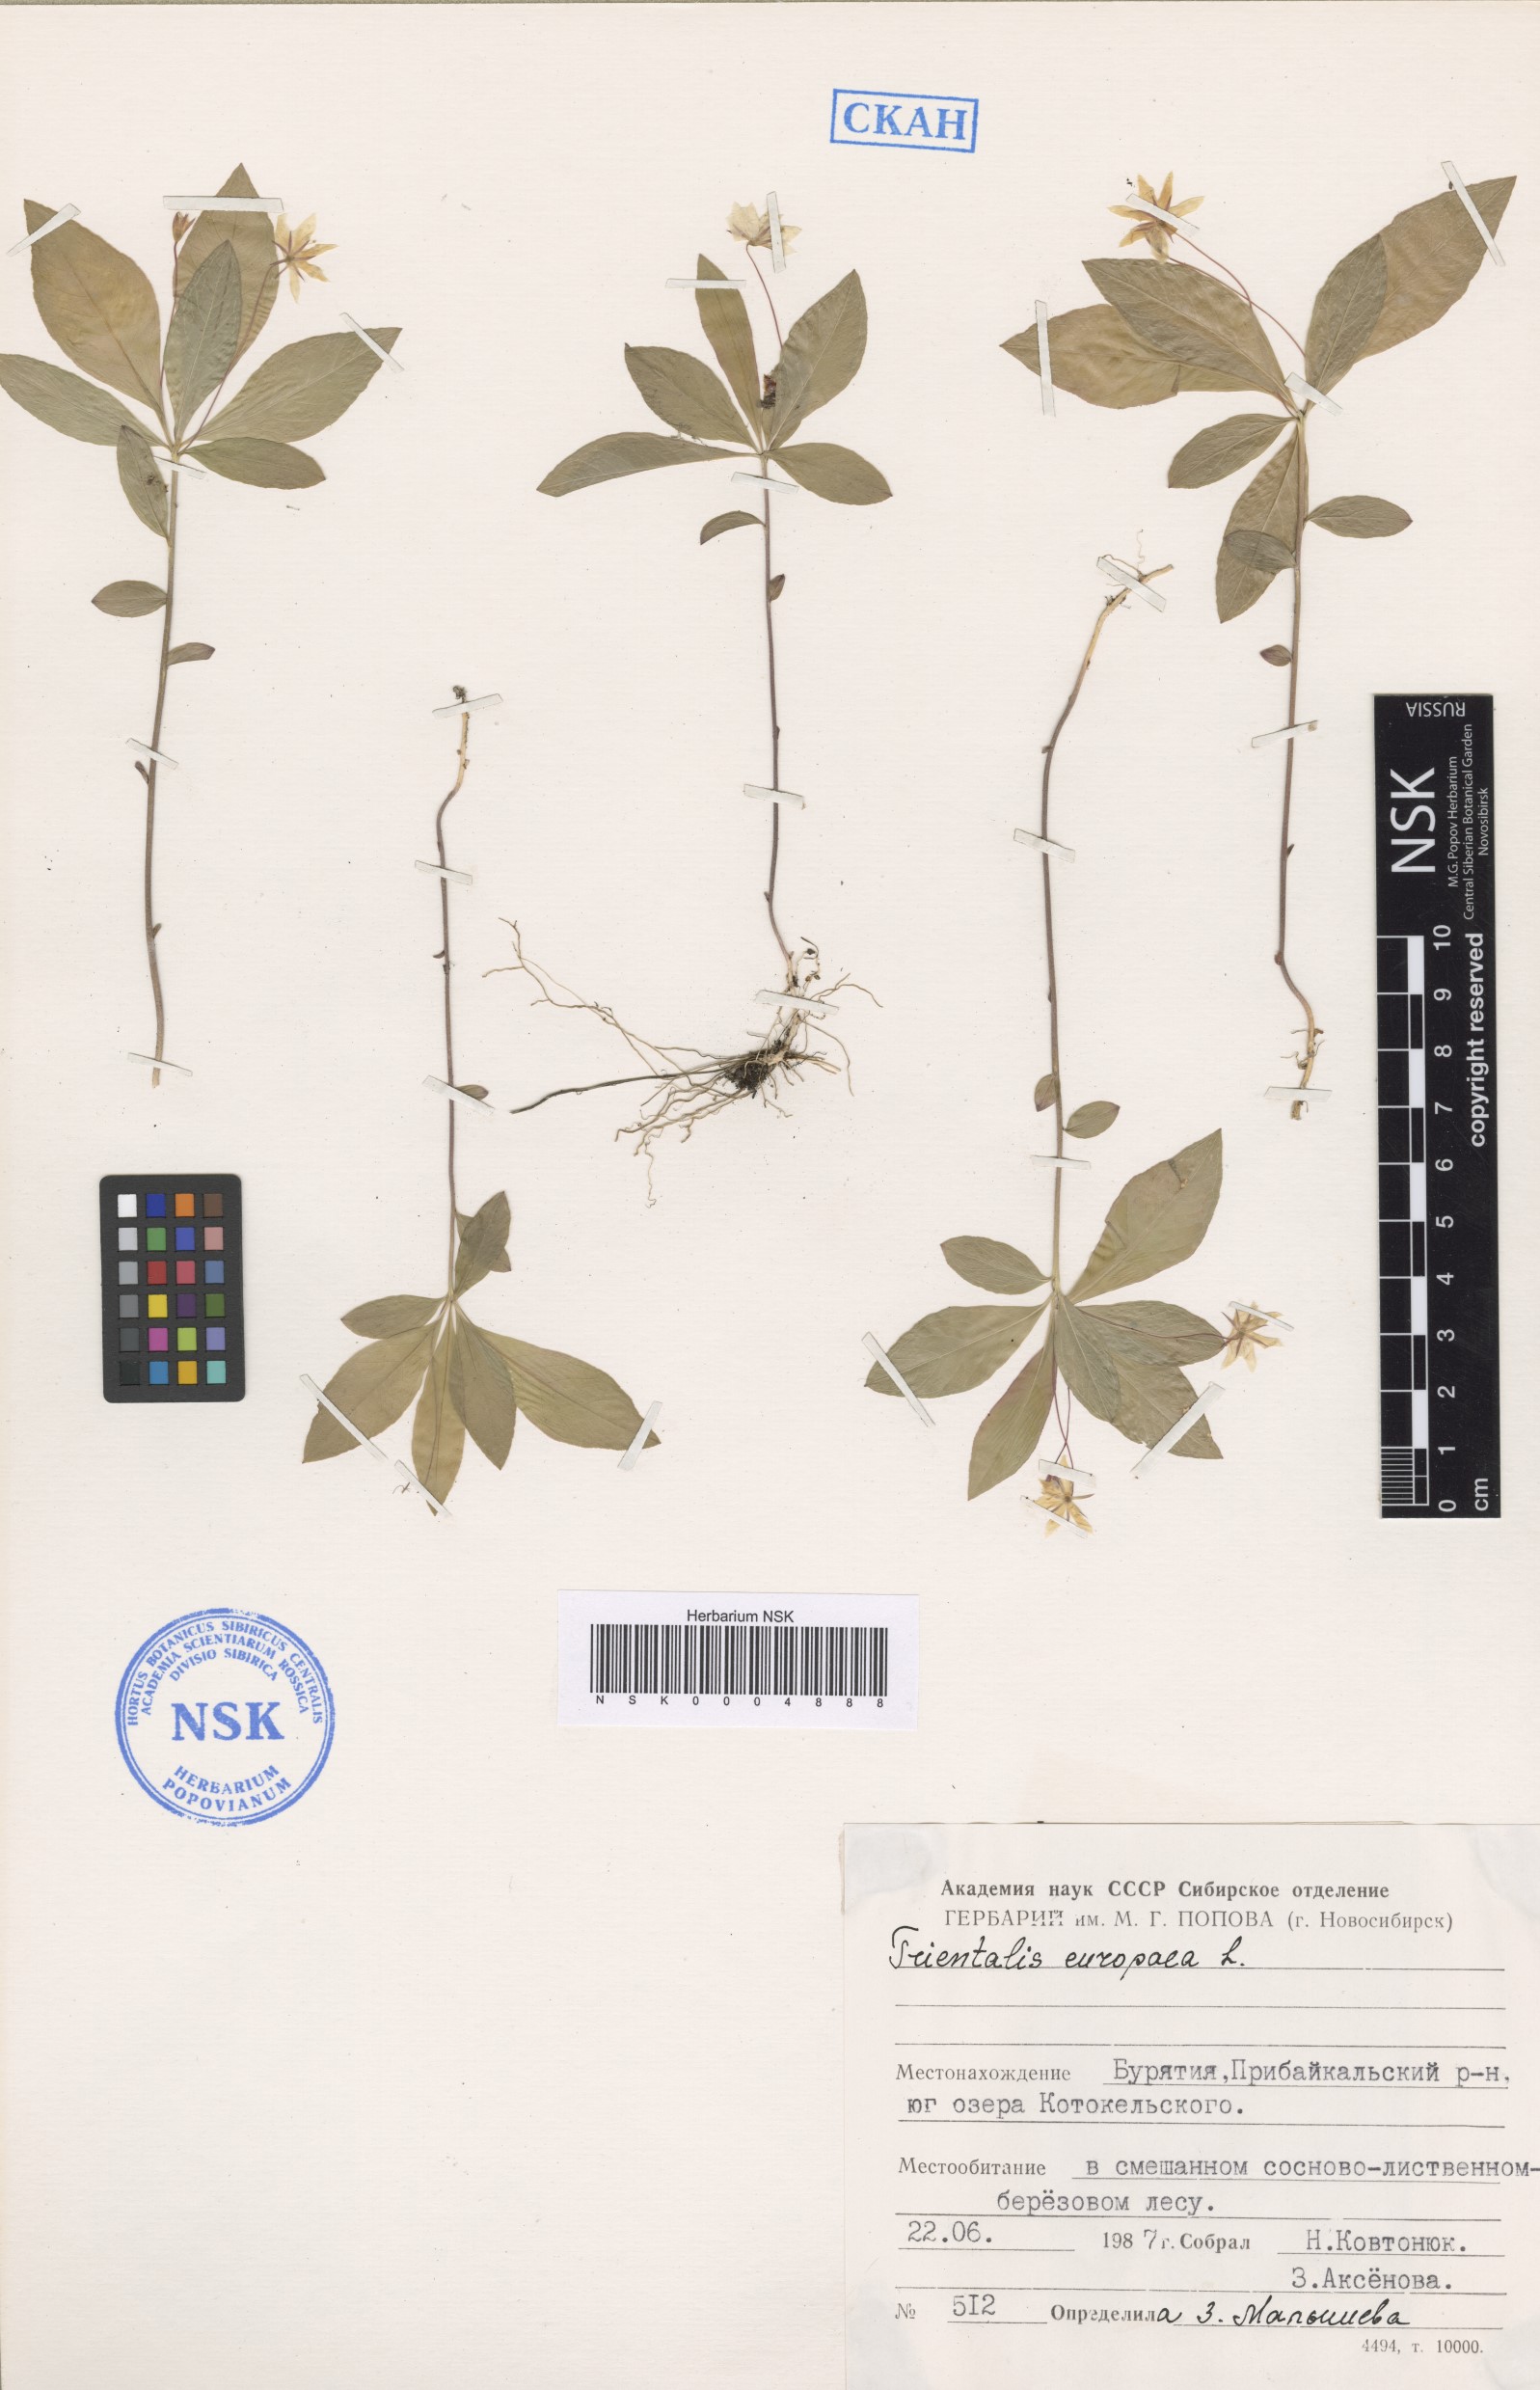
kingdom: Plantae
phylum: Tracheophyta
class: Magnoliopsida
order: Ericales
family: Primulaceae
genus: Lysimachia
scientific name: Lysimachia europaea
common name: Arctic starflower
